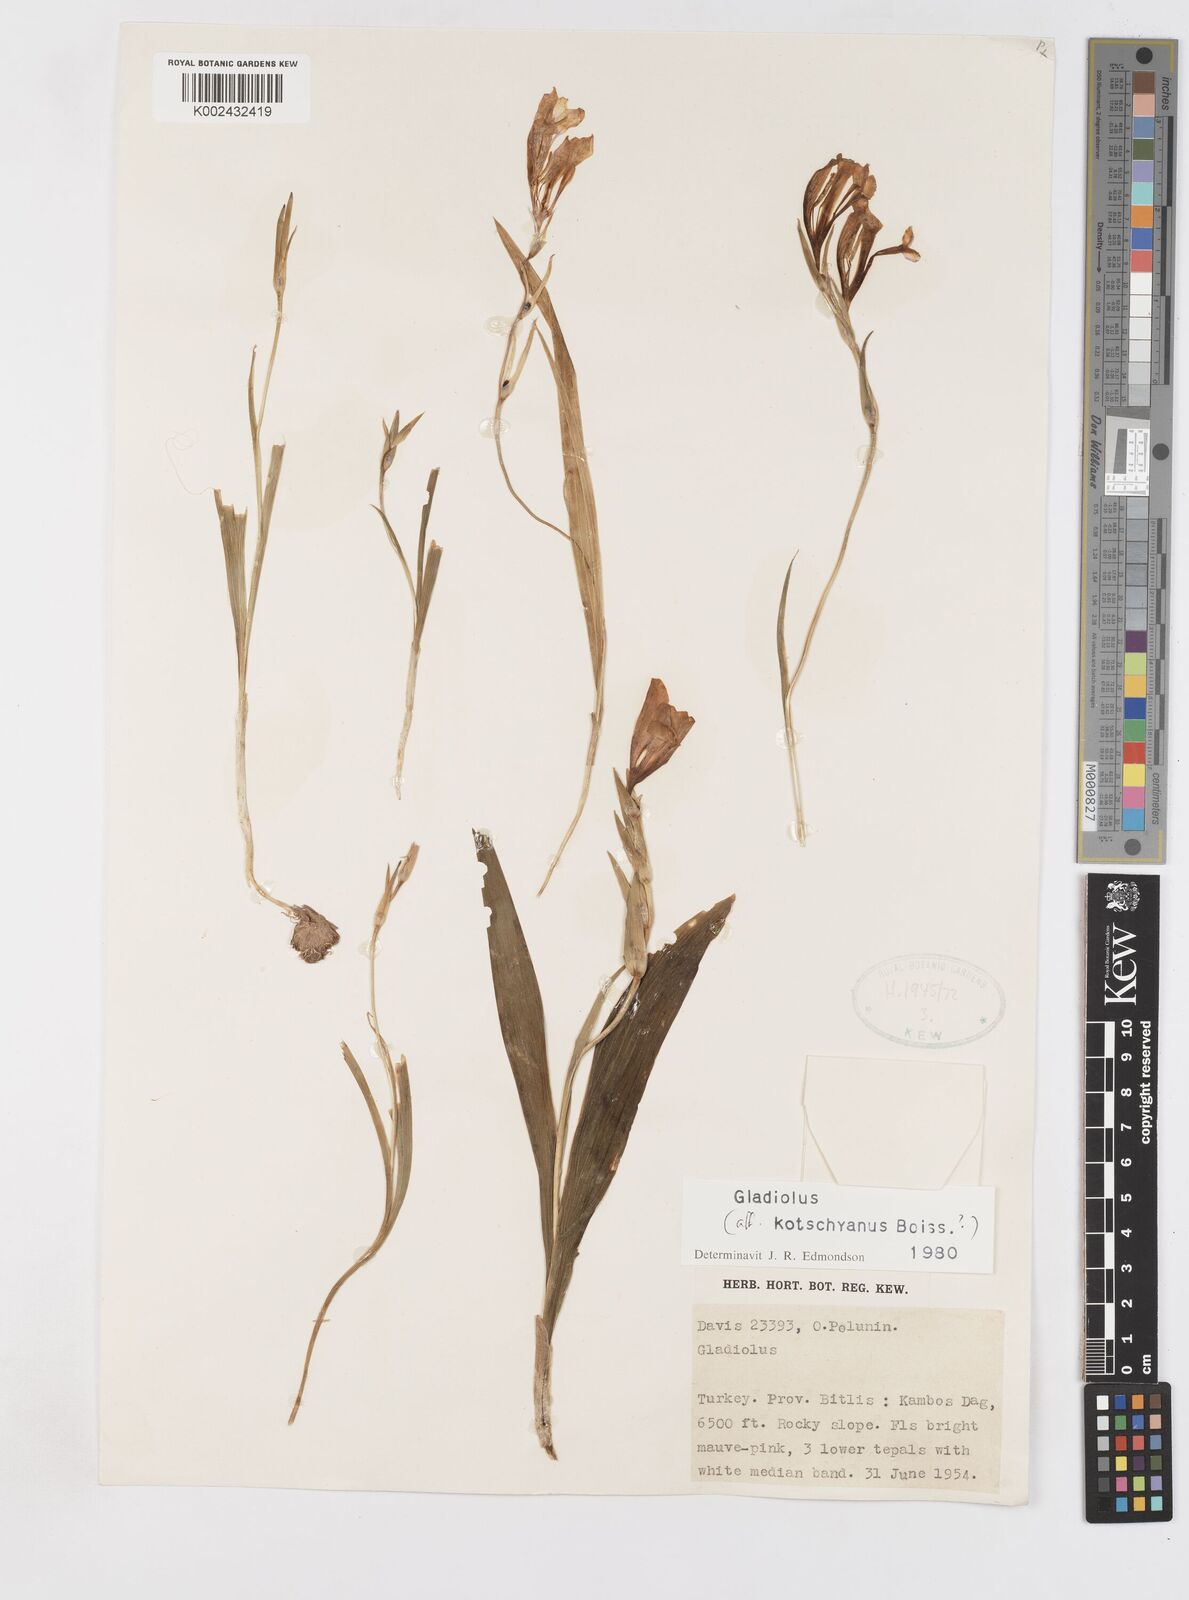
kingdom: Plantae
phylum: Tracheophyta
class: Liliopsida
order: Asparagales
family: Iridaceae
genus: Gladiolus
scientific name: Gladiolus kotschyanus
